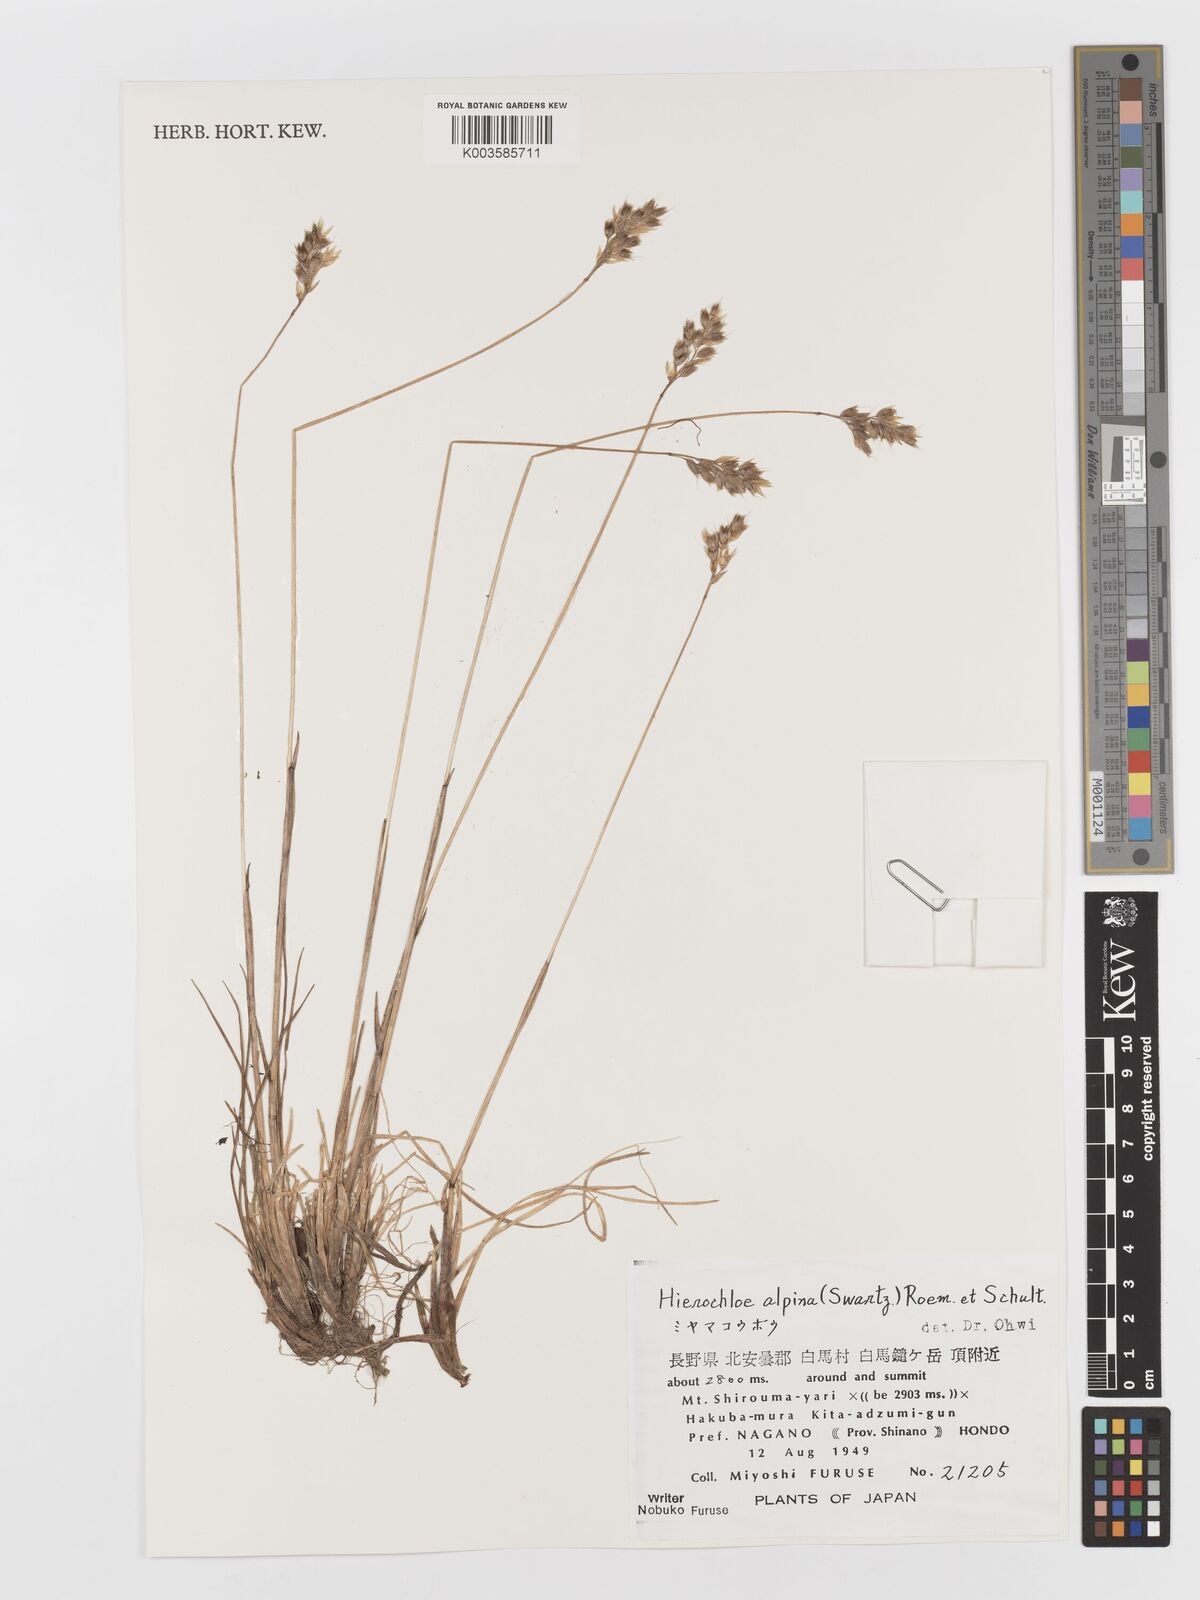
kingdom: Plantae
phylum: Tracheophyta
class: Liliopsida
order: Poales
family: Poaceae
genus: Anthoxanthum
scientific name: Anthoxanthum monticola
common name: Alpine sweetgrass
